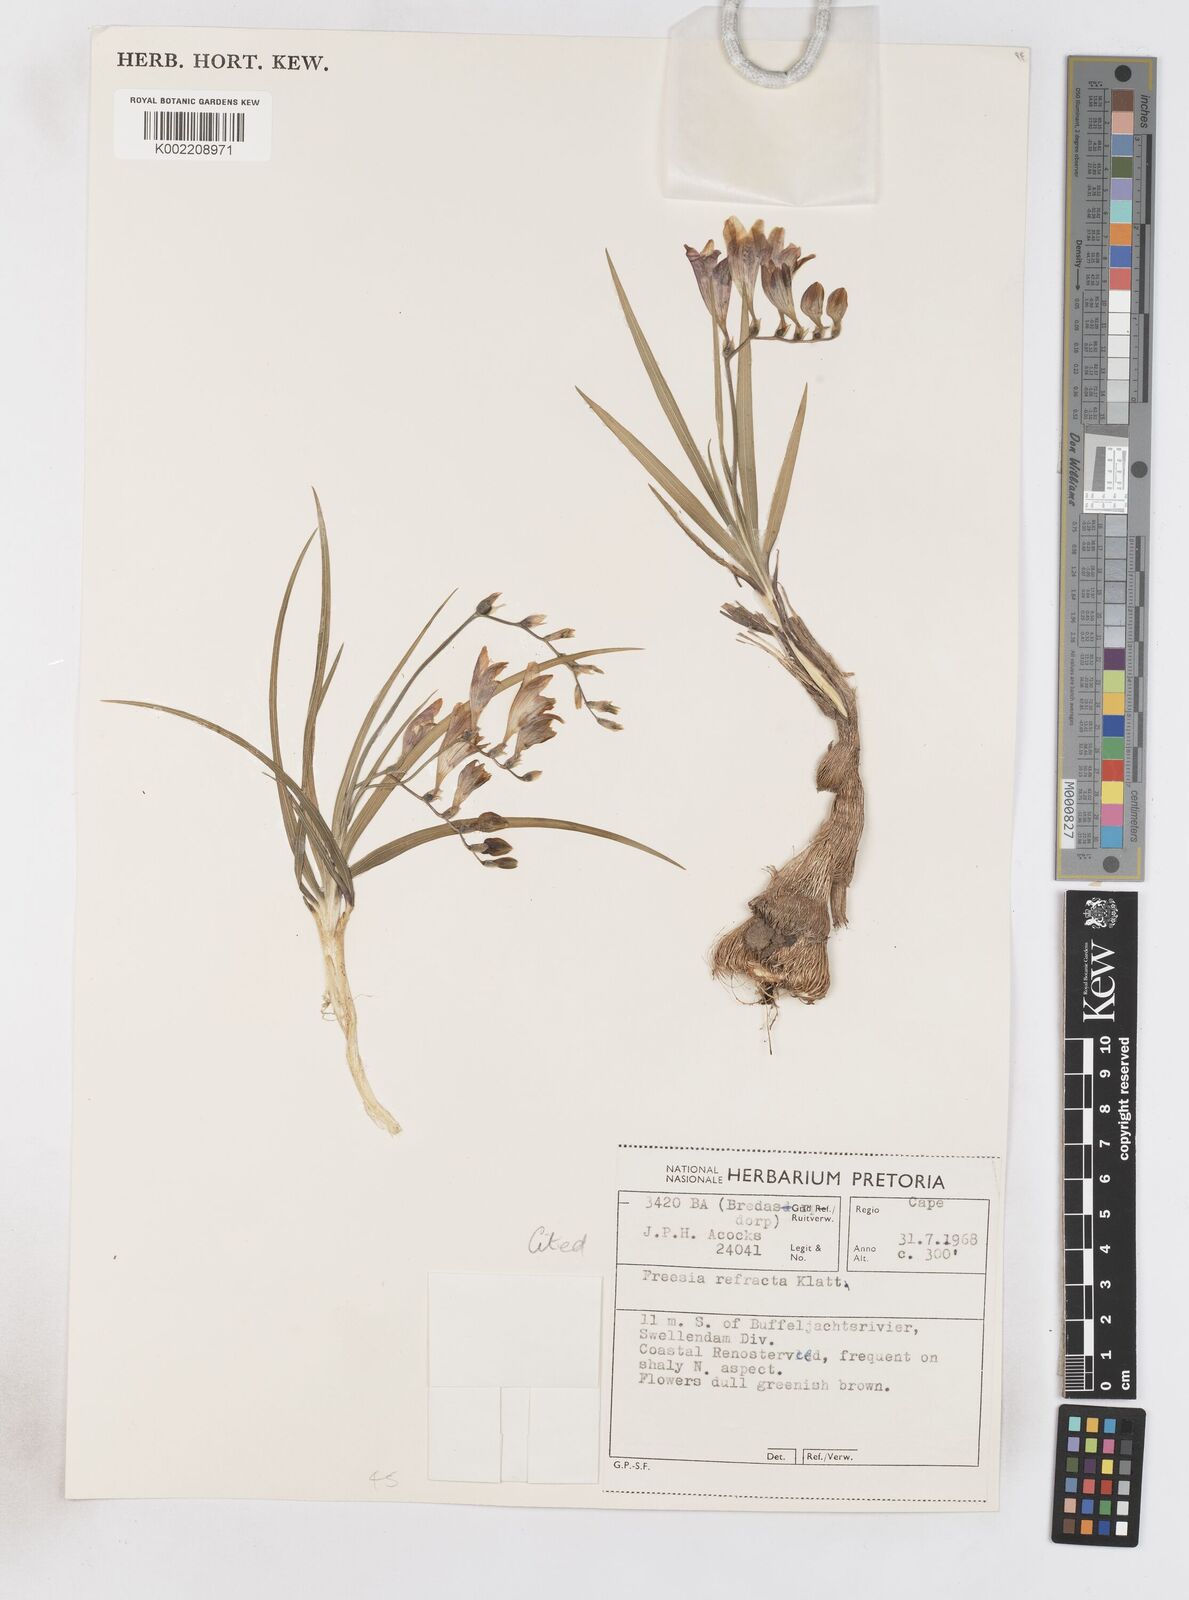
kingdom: Plantae
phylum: Tracheophyta
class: Liliopsida
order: Asparagales
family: Iridaceae
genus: Freesia
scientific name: Freesia refracta
